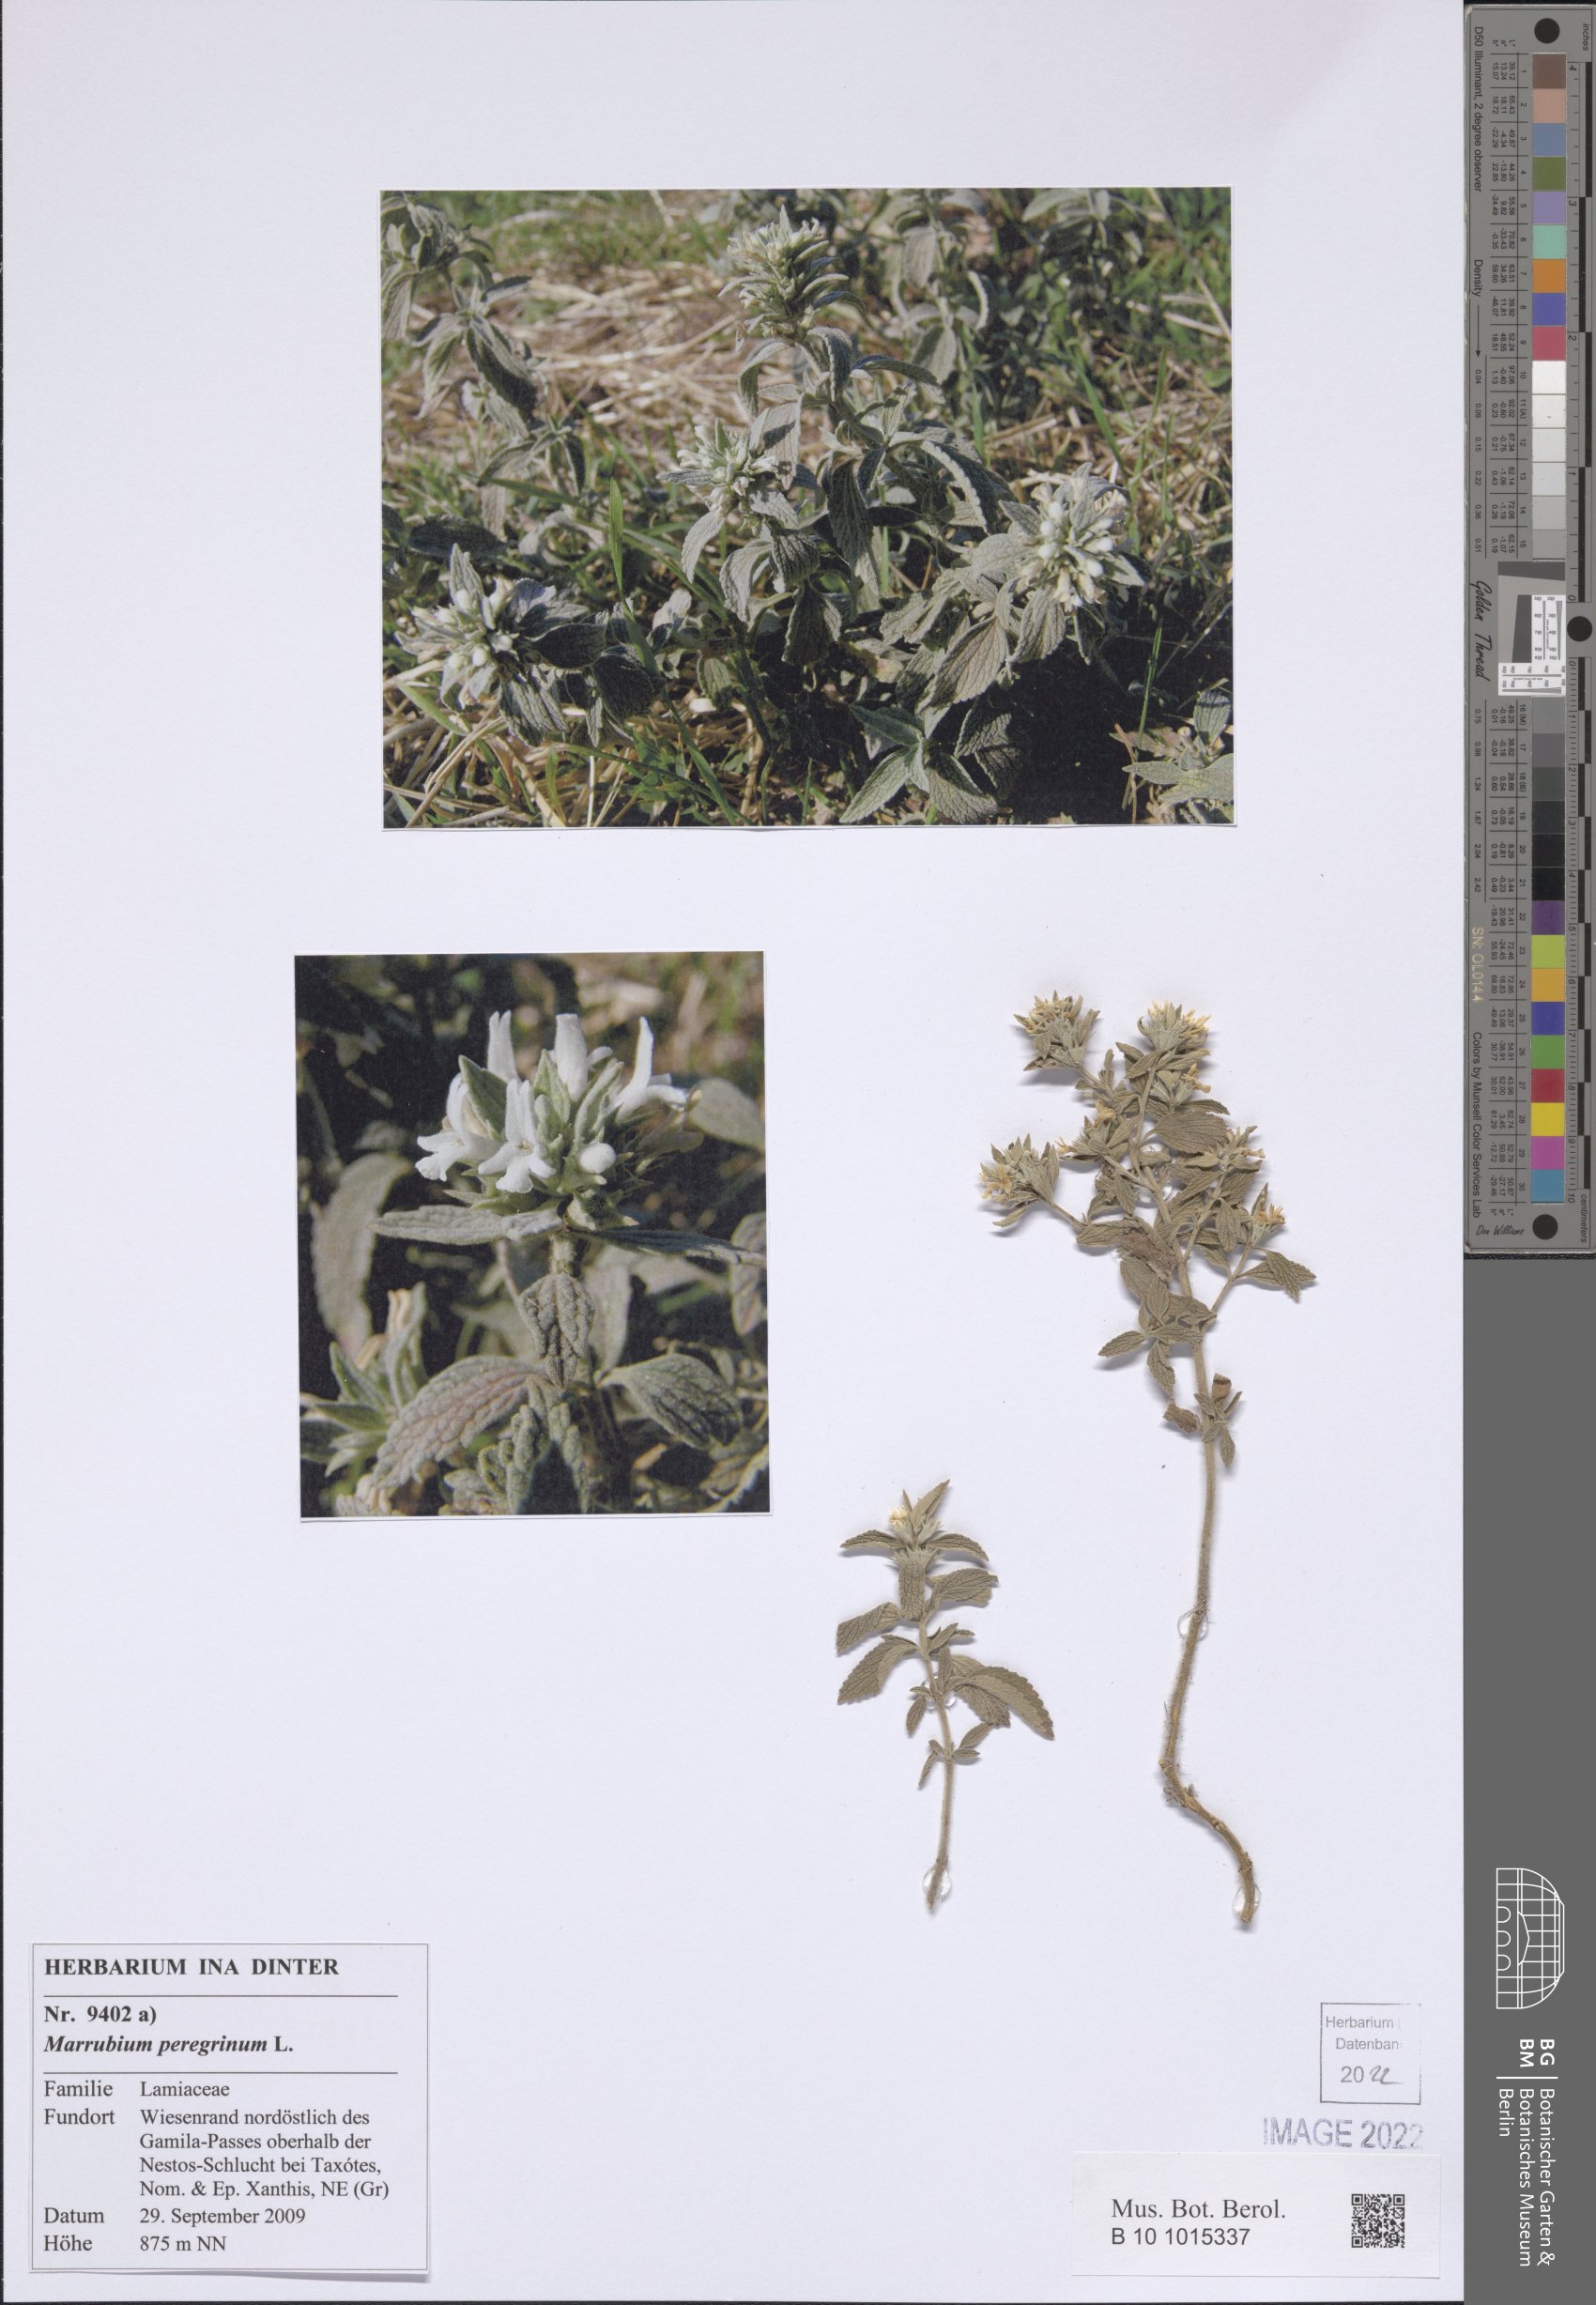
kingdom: Plantae
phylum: Tracheophyta
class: Magnoliopsida
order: Lamiales
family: Lamiaceae
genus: Marrubium
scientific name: Marrubium peregrinum
